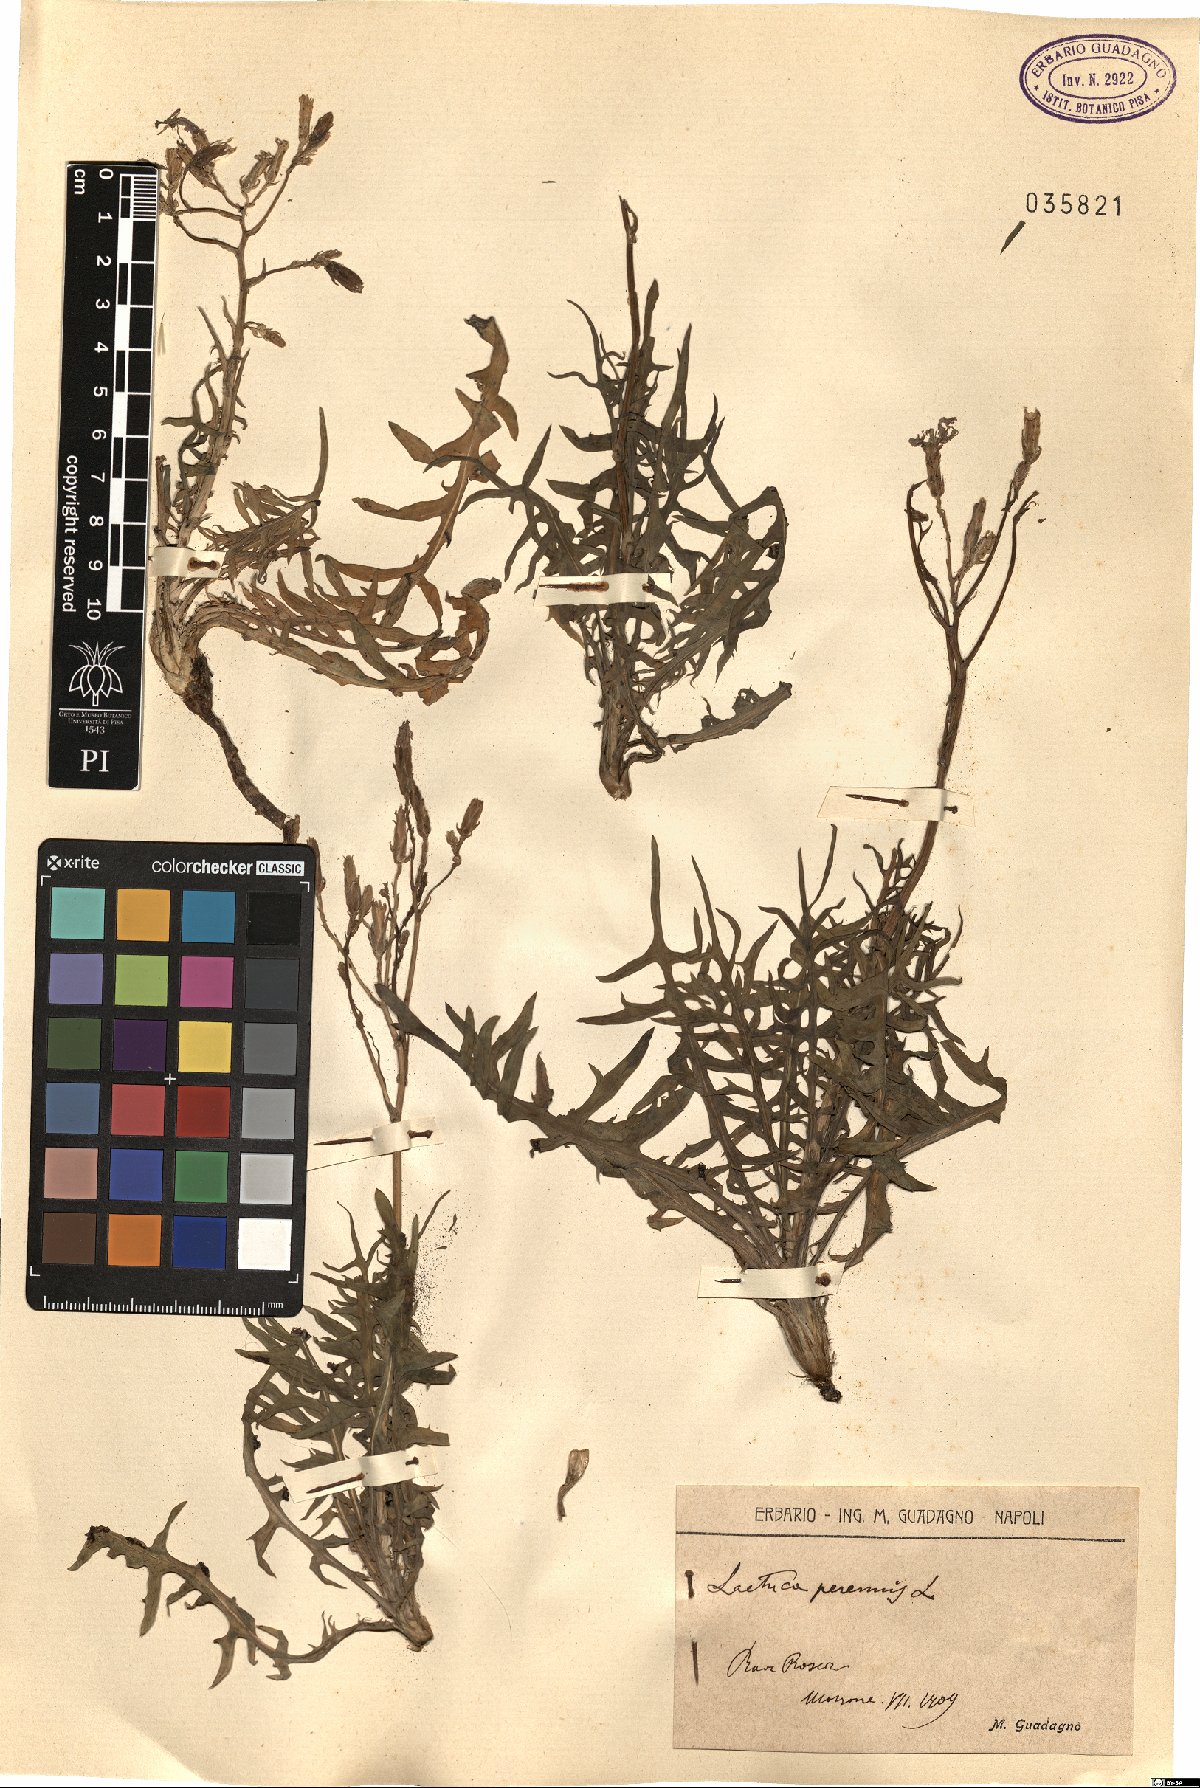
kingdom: Plantae
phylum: Tracheophyta
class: Magnoliopsida
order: Asterales
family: Asteraceae
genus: Lactuca
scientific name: Lactuca perennis
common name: Mountain lettuce
